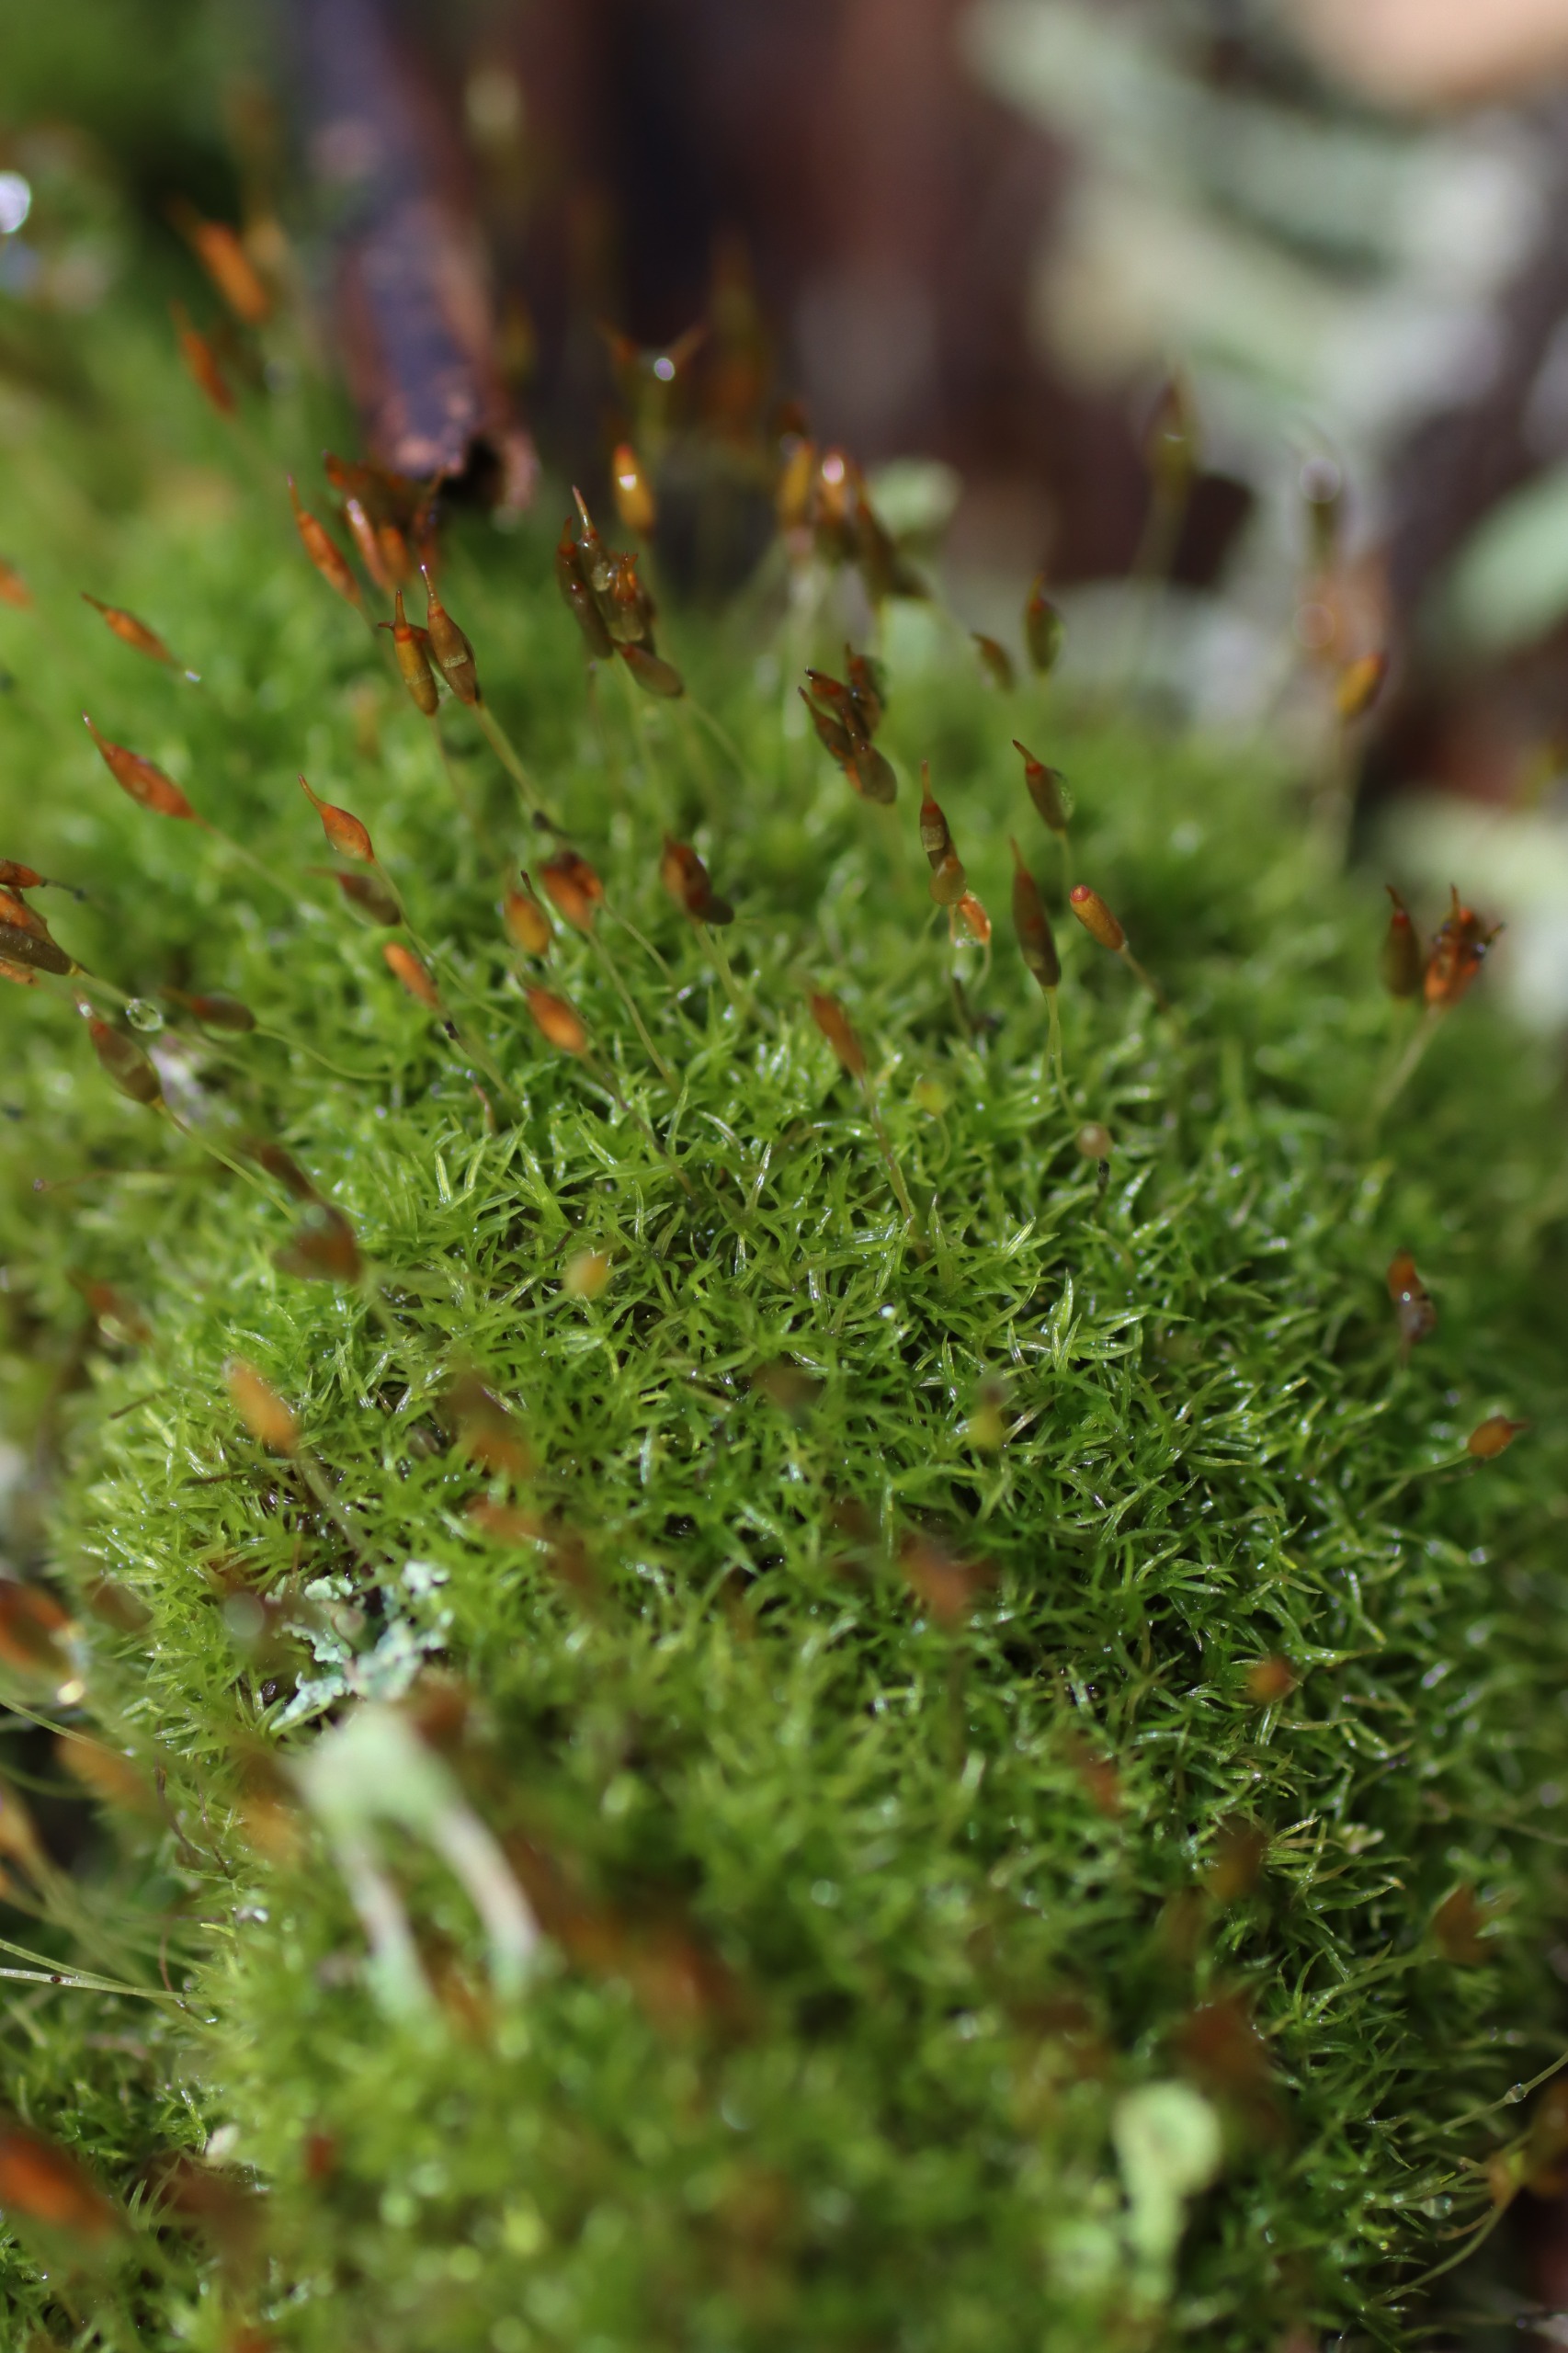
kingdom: Plantae
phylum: Bryophyta
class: Bryopsida
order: Dicranales
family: Rhabdoweisiaceae
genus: Dicranoweisia
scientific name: Dicranoweisia cirrata
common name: Almindelig krøltuemos
